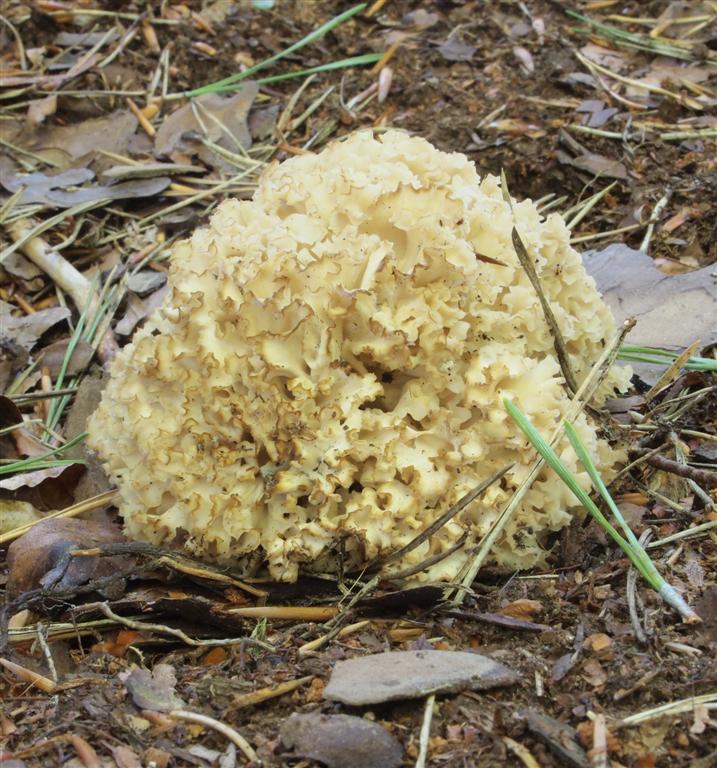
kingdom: Fungi
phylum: Basidiomycota
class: Agaricomycetes
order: Polyporales
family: Sparassidaceae
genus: Sparassis
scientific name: Sparassis crispa
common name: kruset blomkålssvamp
